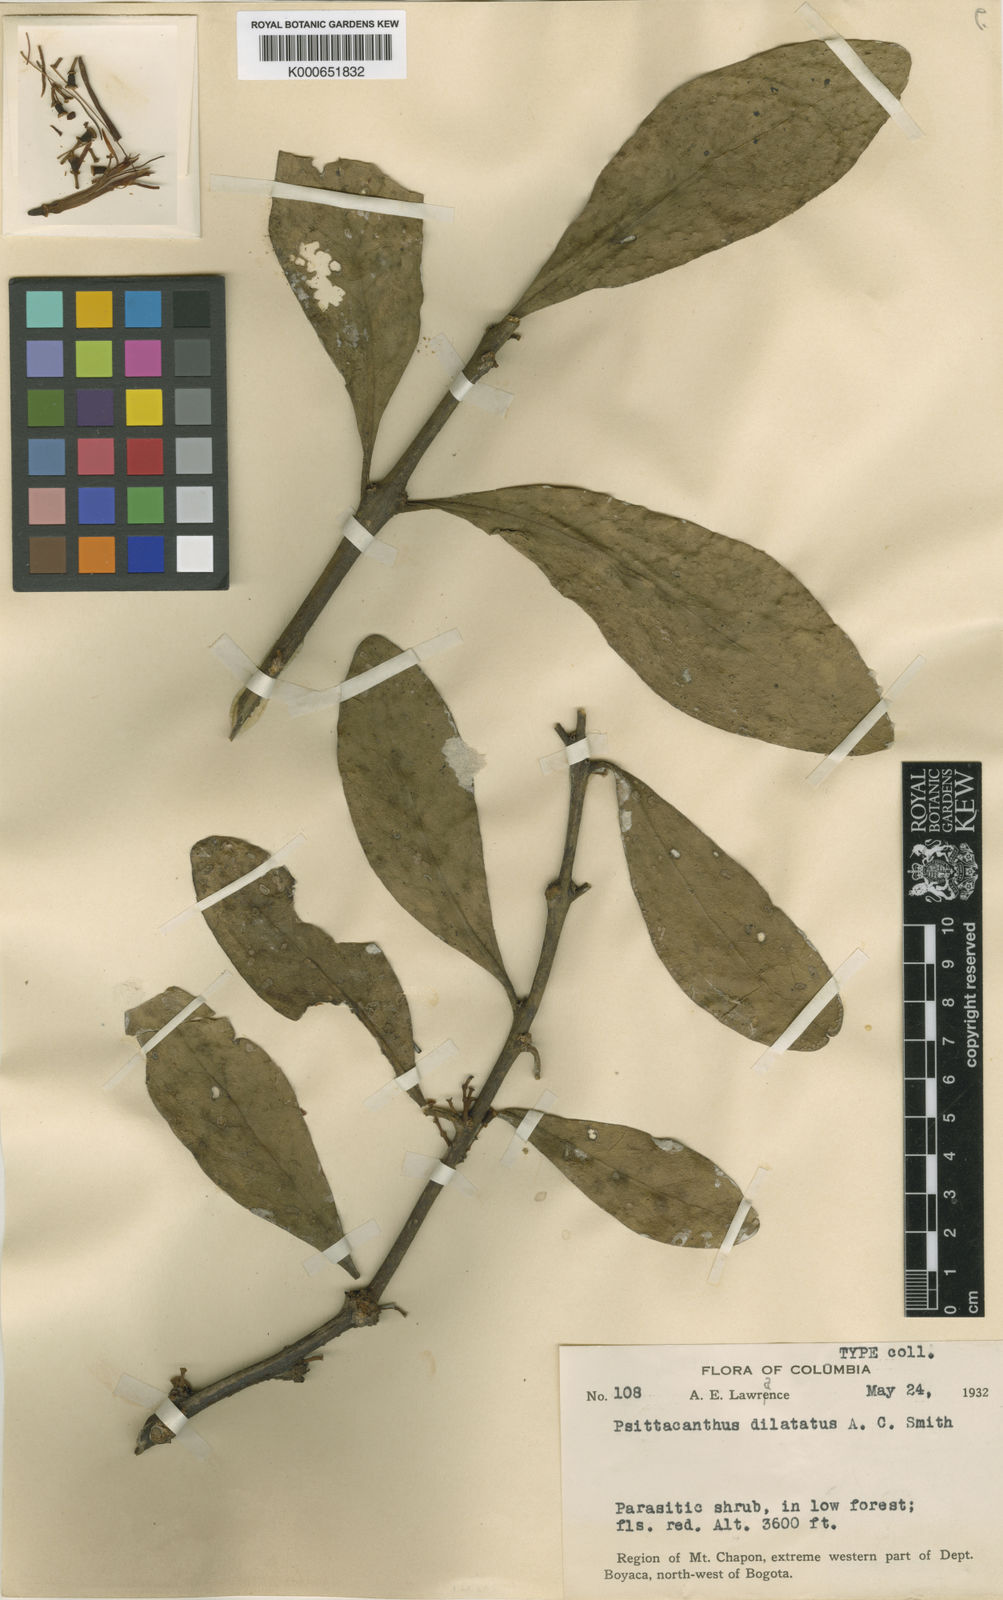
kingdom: Plantae
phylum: Tracheophyta
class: Magnoliopsida
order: Santalales
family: Loranthaceae
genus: Psittacanthus
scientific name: Psittacanthus dilatatus
